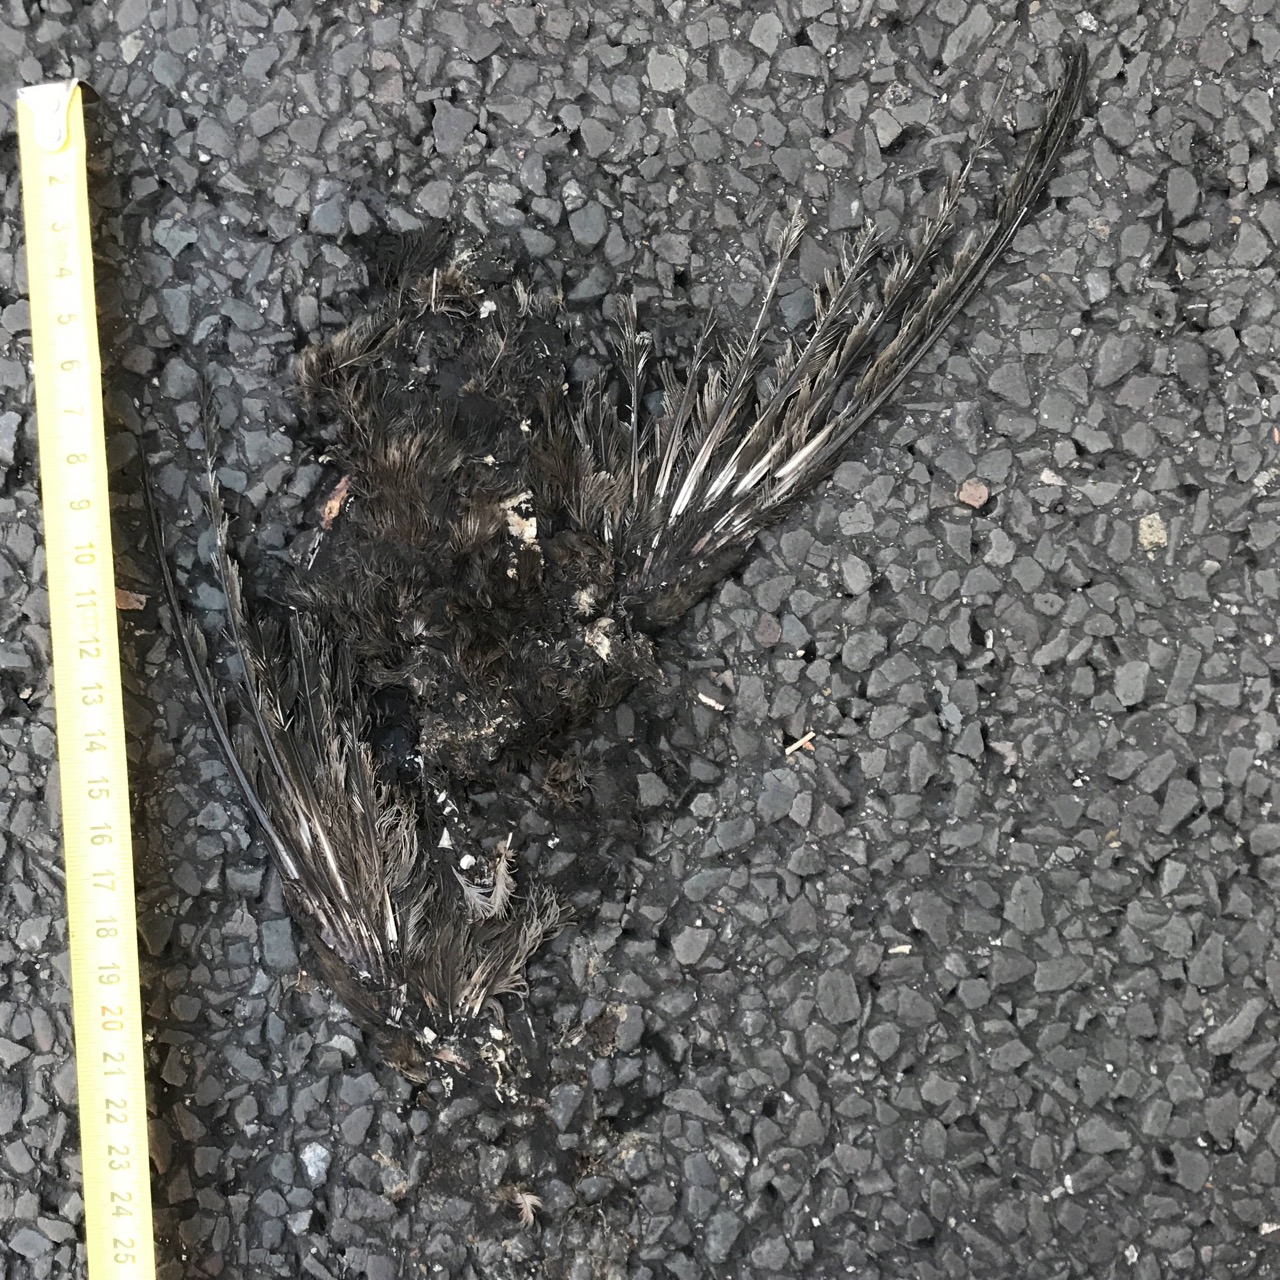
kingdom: Animalia
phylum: Chordata
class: Aves
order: Passeriformes
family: Turdidae
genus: Turdus
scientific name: Turdus merula
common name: Common blackbird
